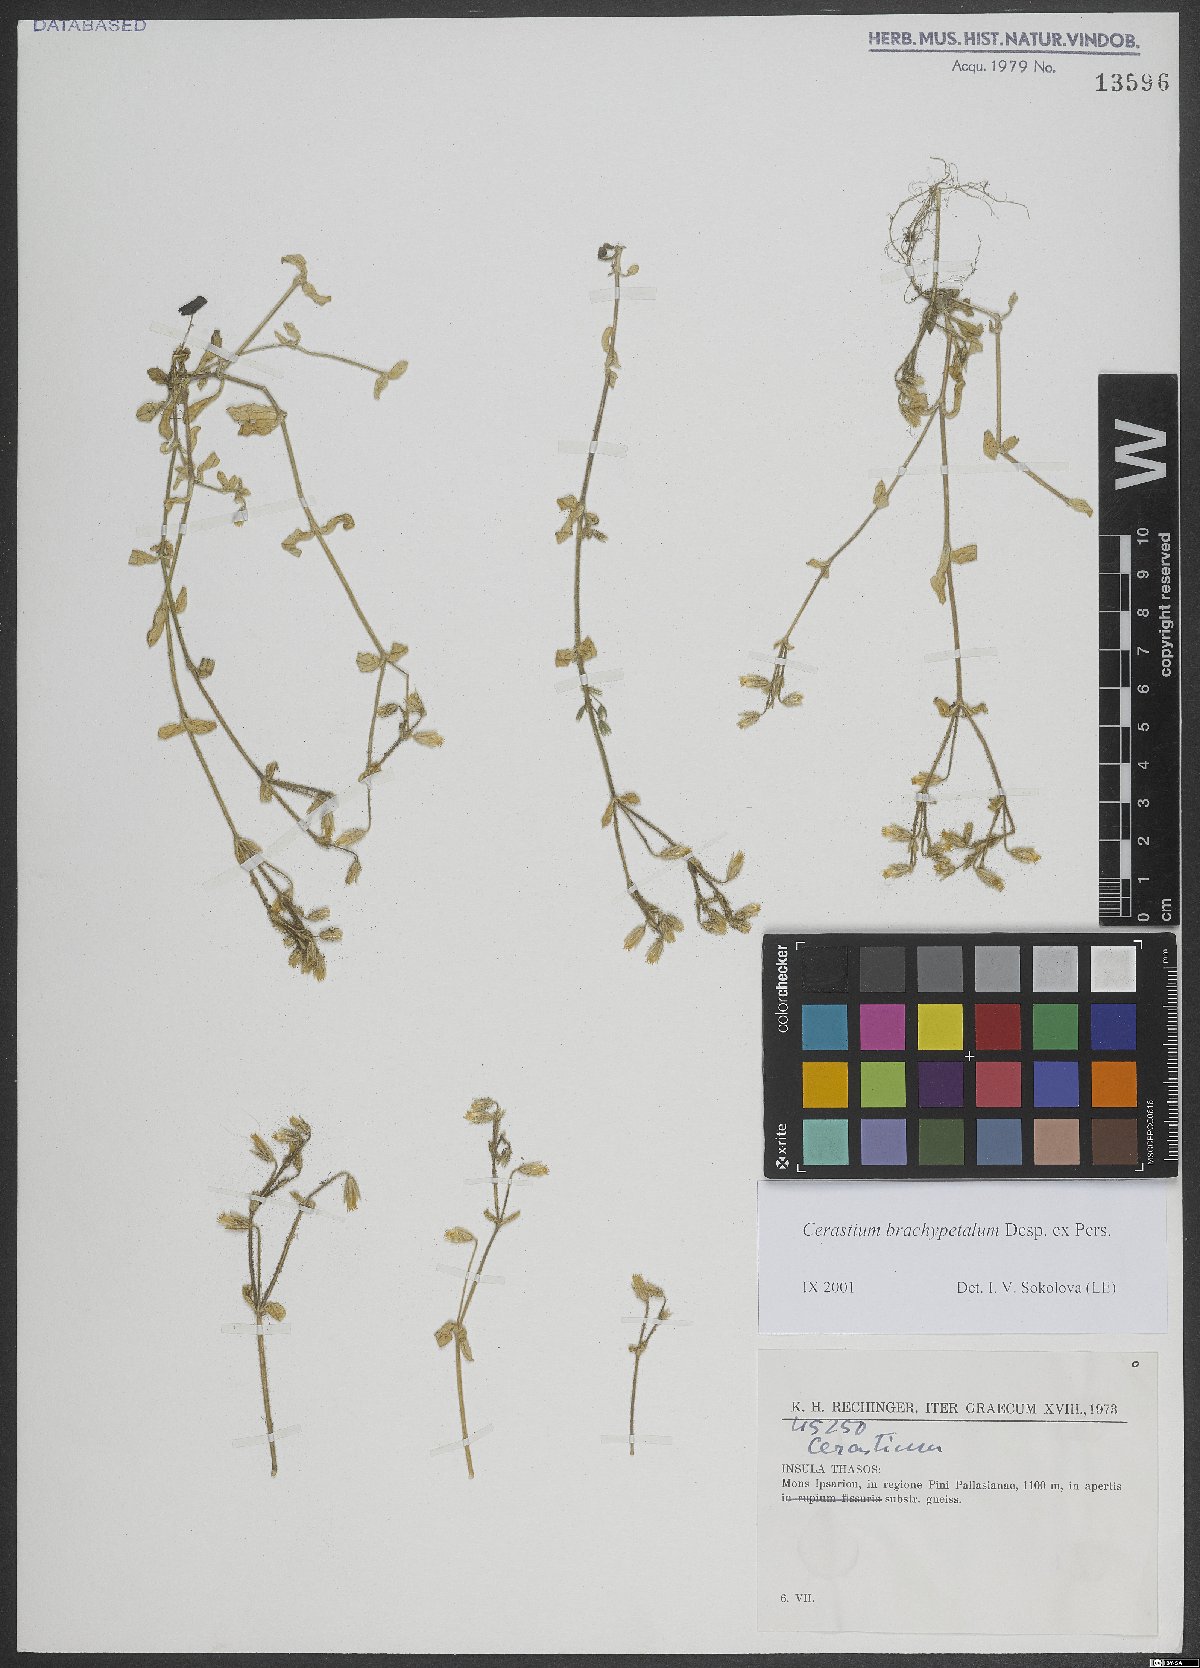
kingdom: Plantae
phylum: Tracheophyta
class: Magnoliopsida
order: Caryophyllales
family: Caryophyllaceae
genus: Cerastium
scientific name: Cerastium brachypetalum
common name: Grey mouse-ear
